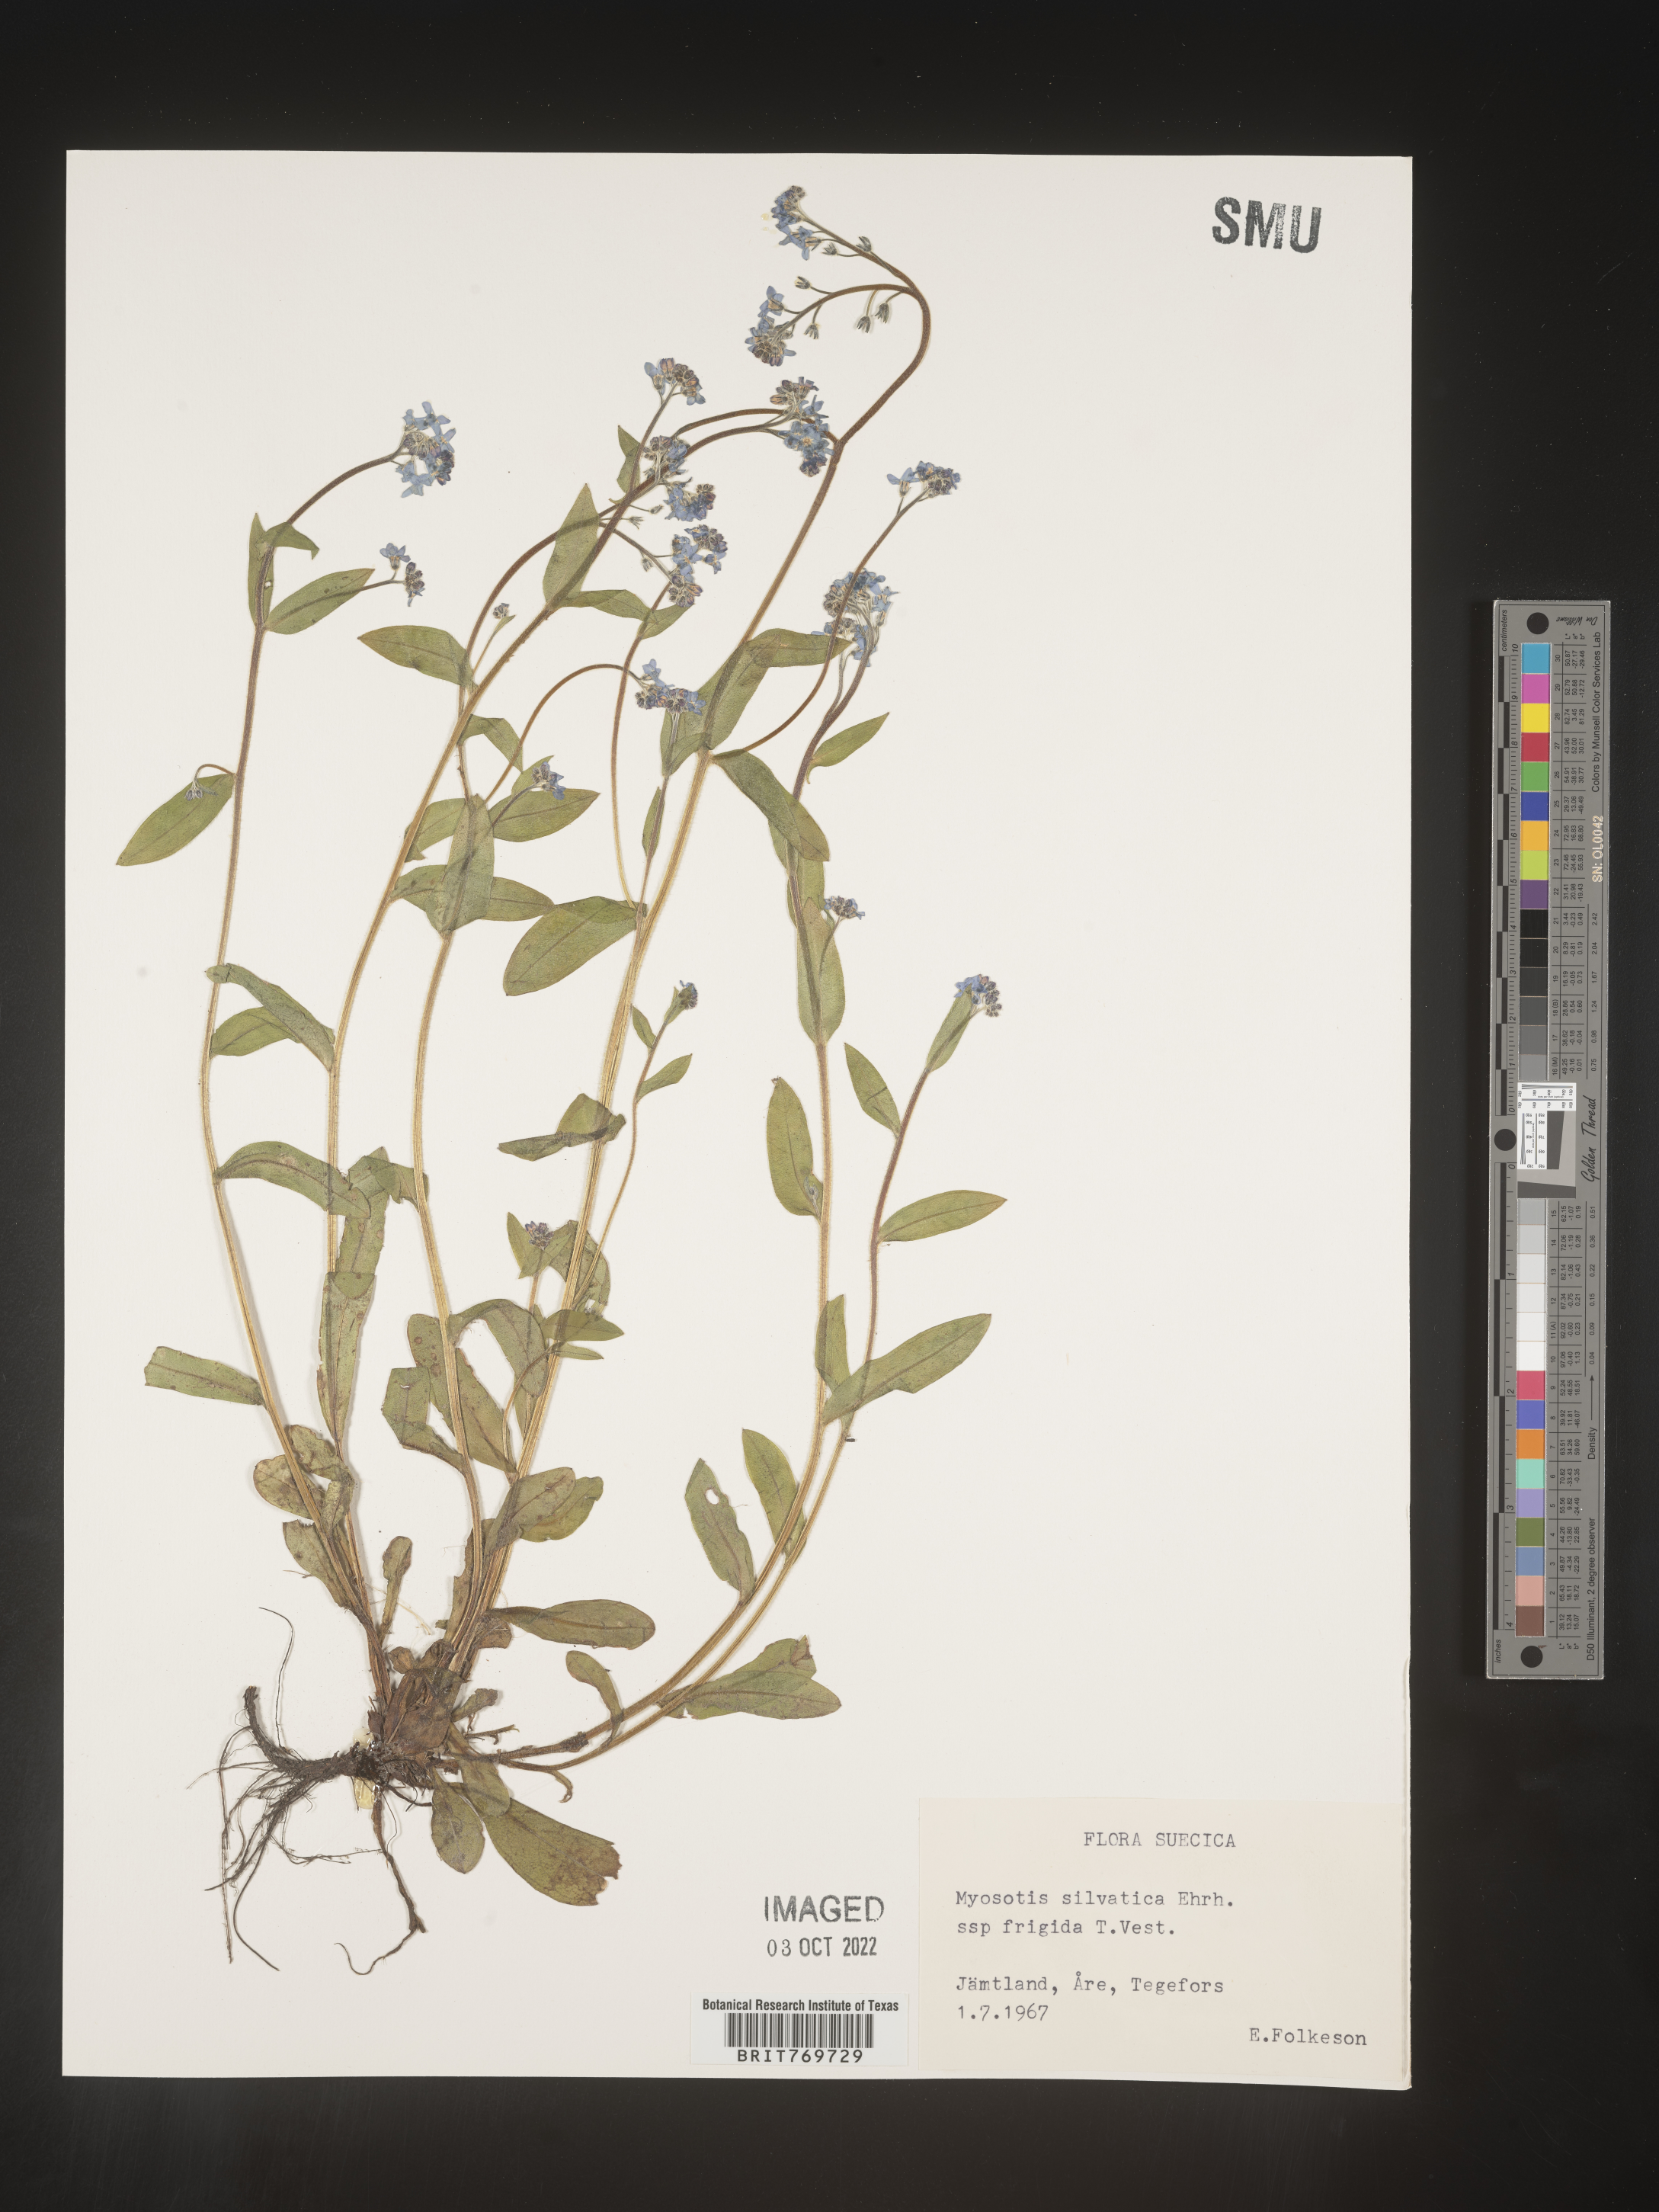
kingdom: Plantae
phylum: Tracheophyta
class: Magnoliopsida
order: Boraginales
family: Boraginaceae
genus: Myosotis
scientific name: Myosotis
